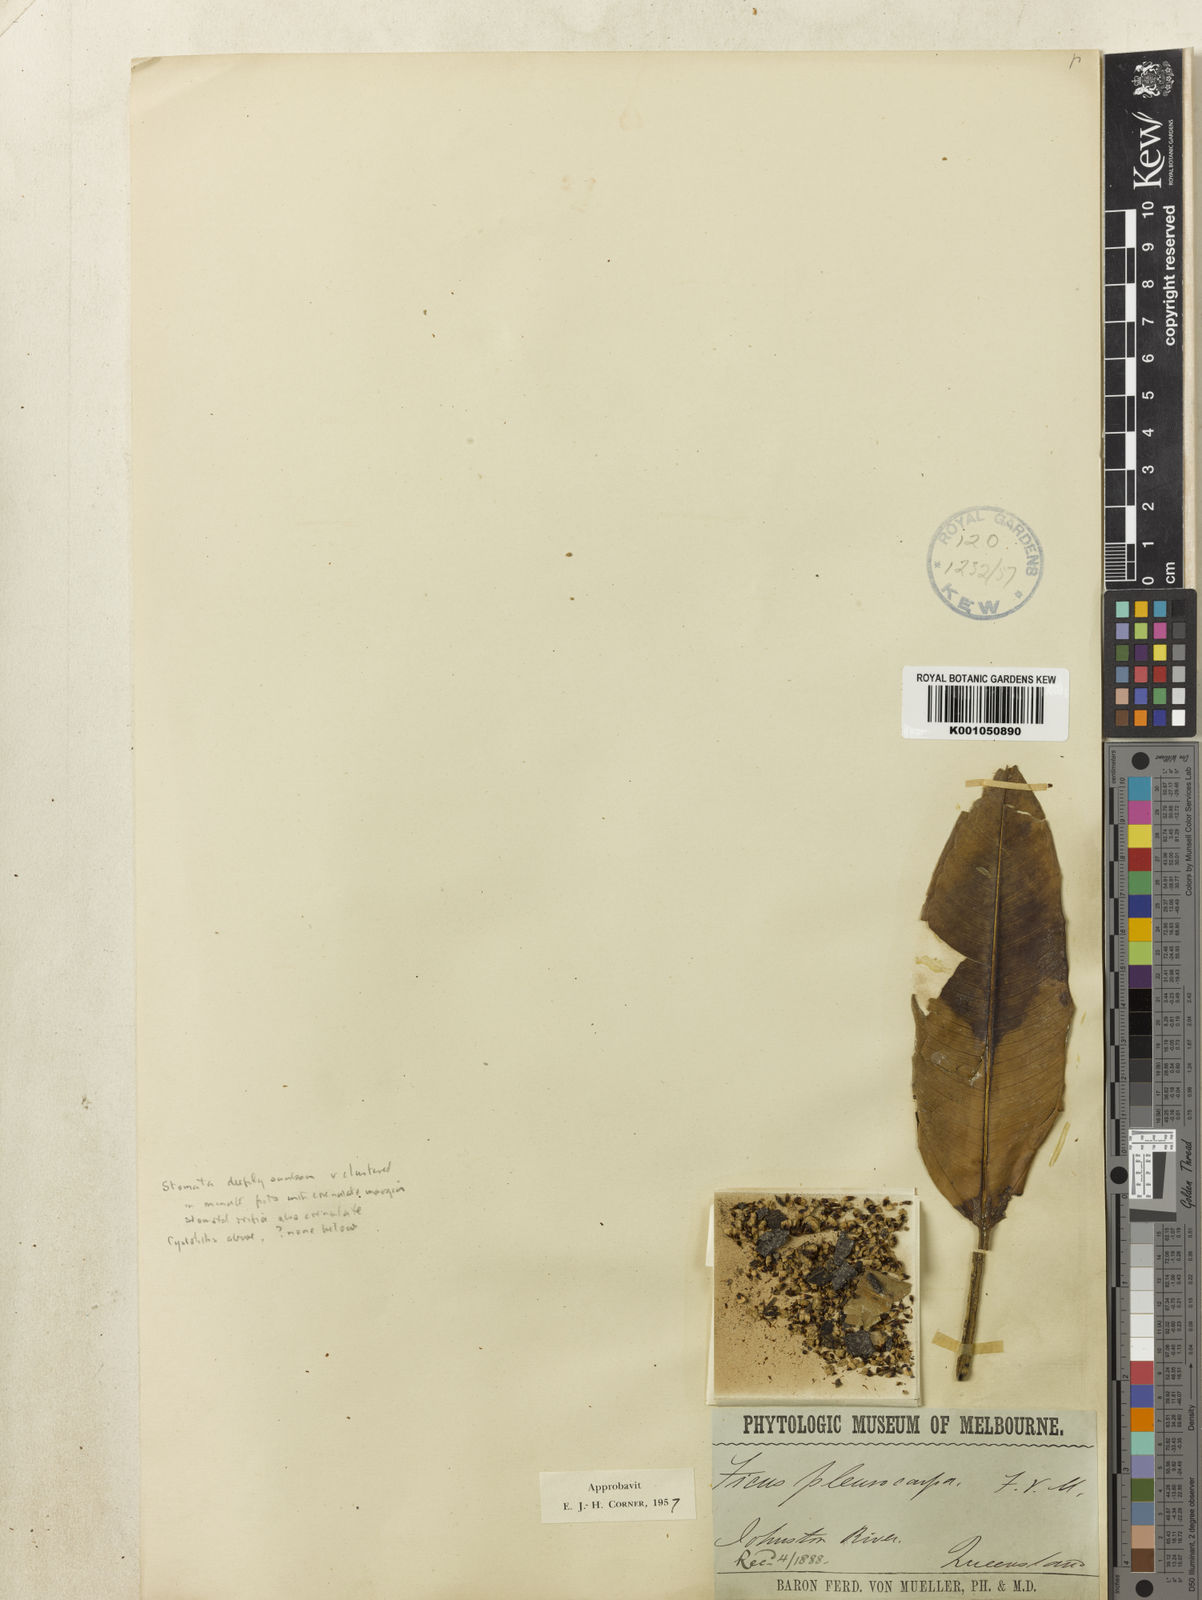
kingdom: Plantae
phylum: Tracheophyta
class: Magnoliopsida
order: Rosales
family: Moraceae
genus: Ficus
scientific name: Ficus pleurocarpa
